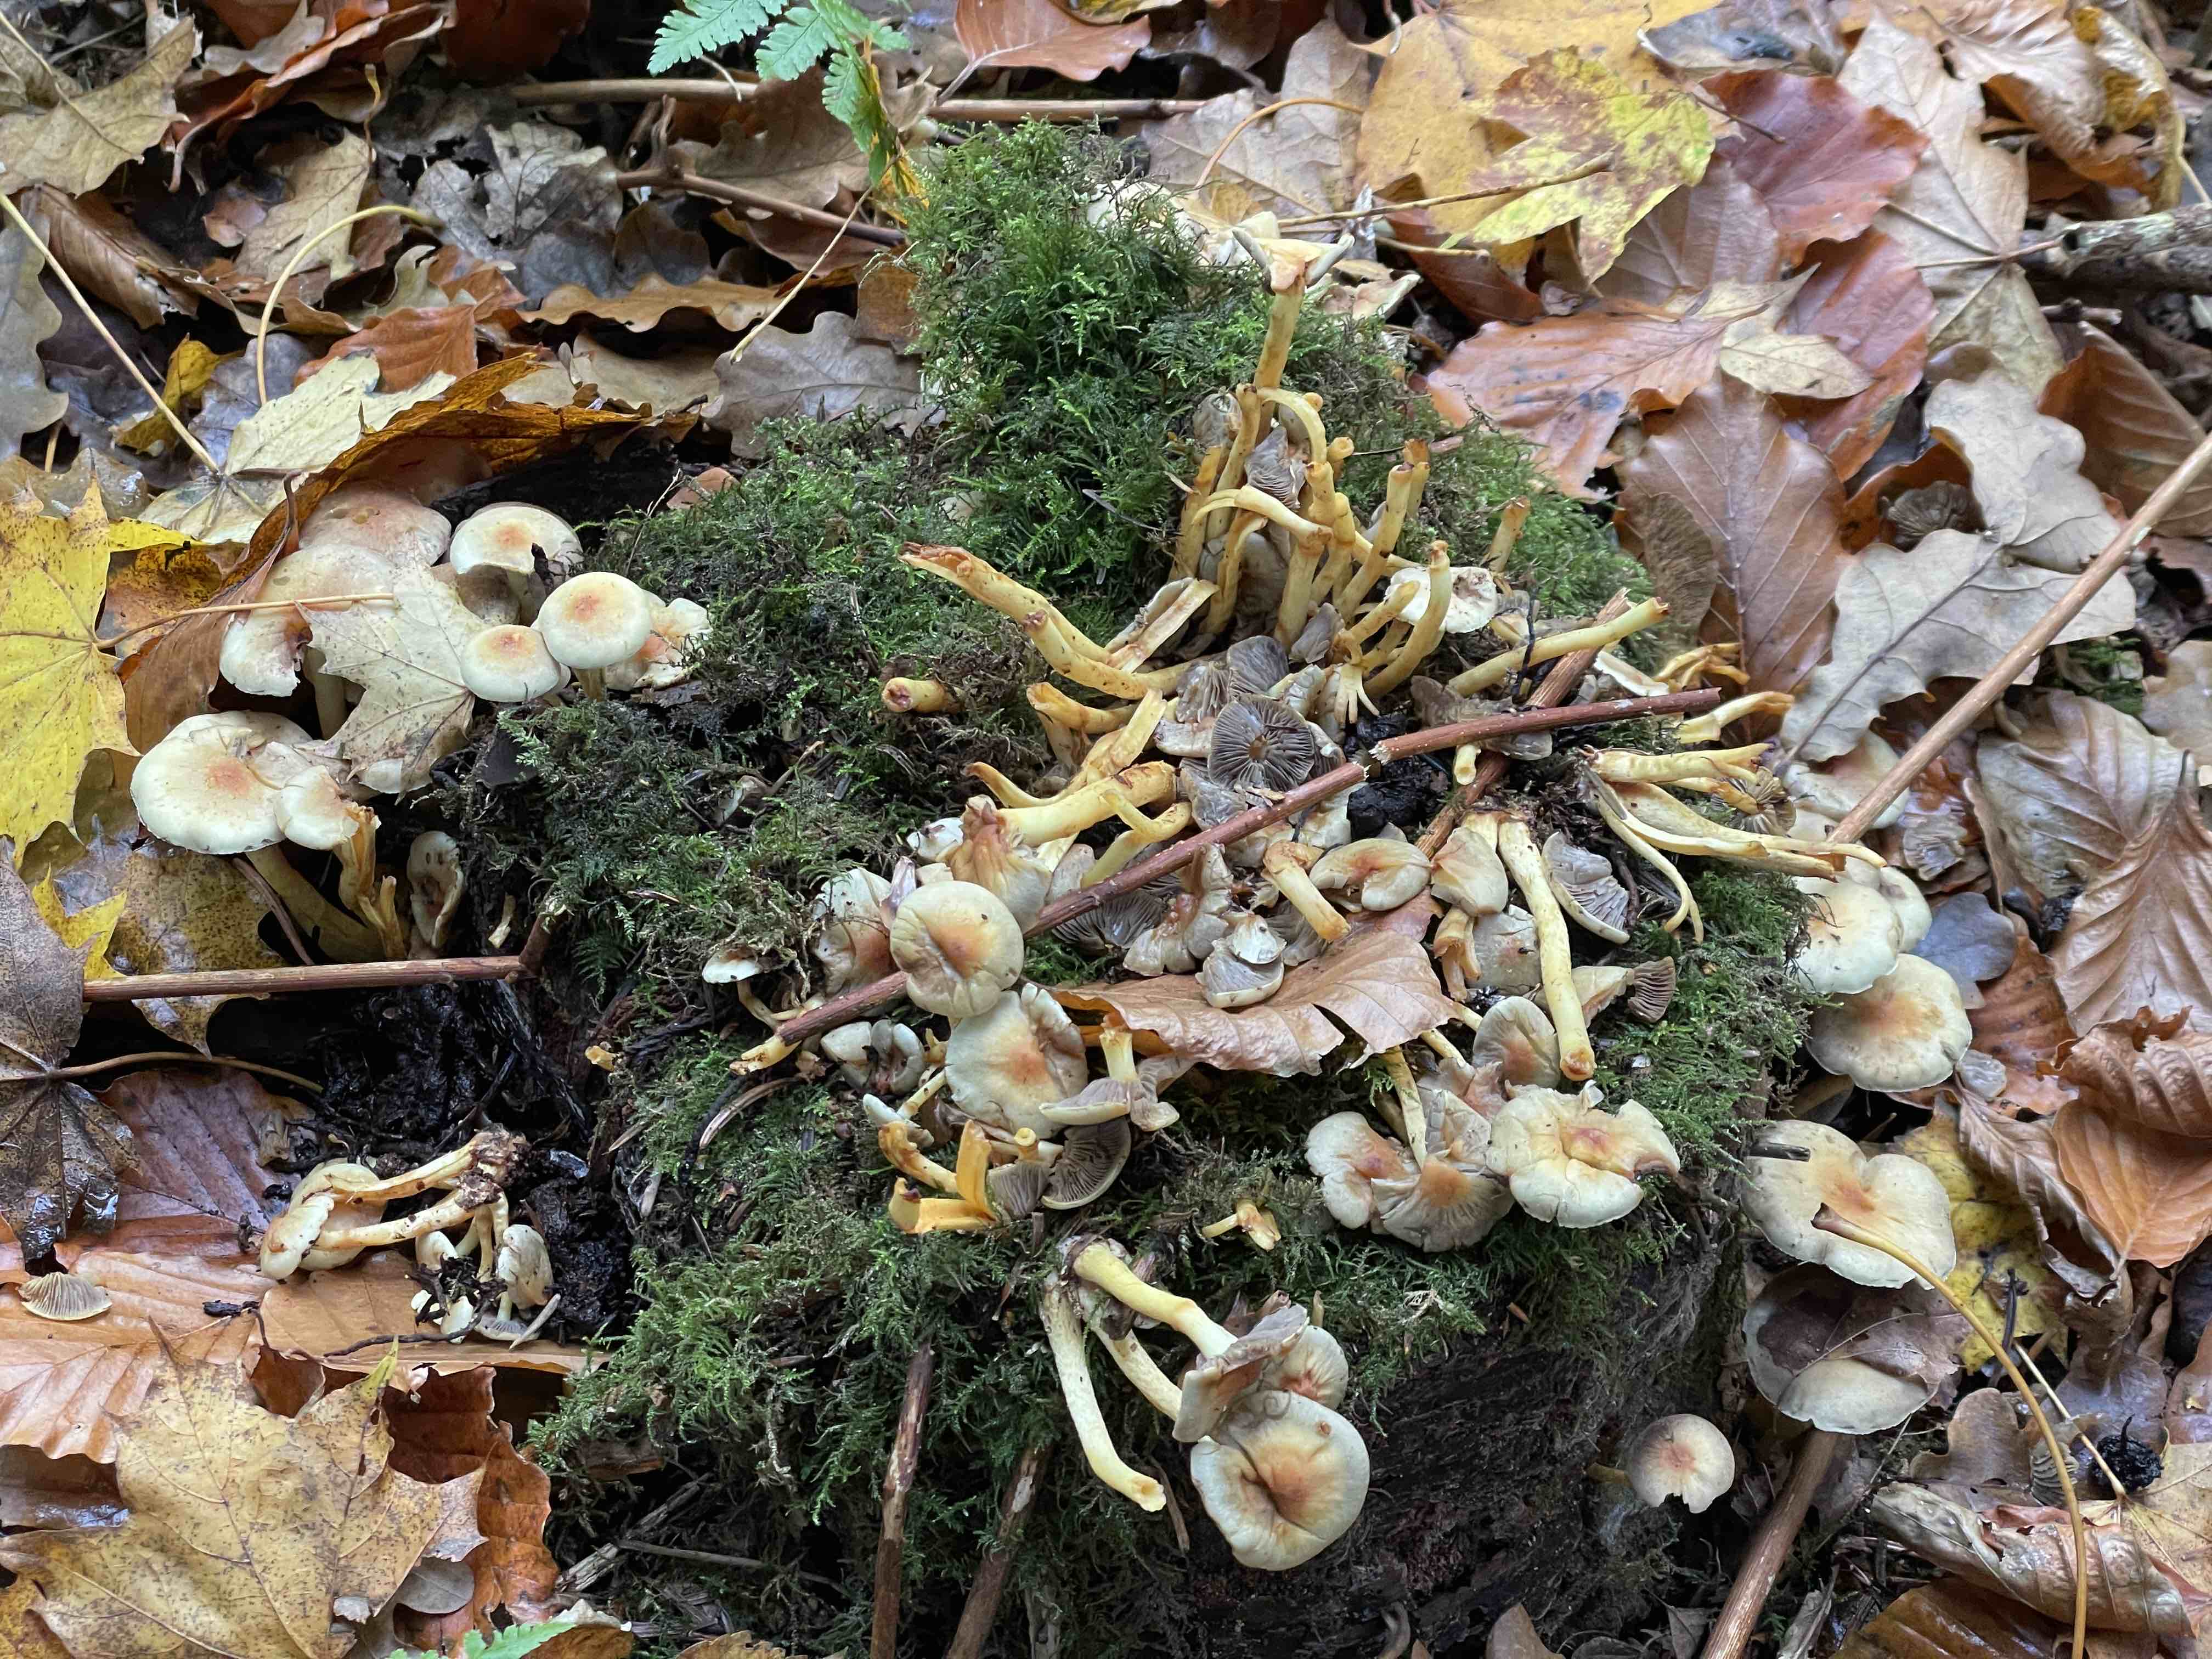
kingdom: Fungi
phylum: Basidiomycota
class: Agaricomycetes
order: Agaricales
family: Strophariaceae
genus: Hypholoma
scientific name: Hypholoma fasciculare
